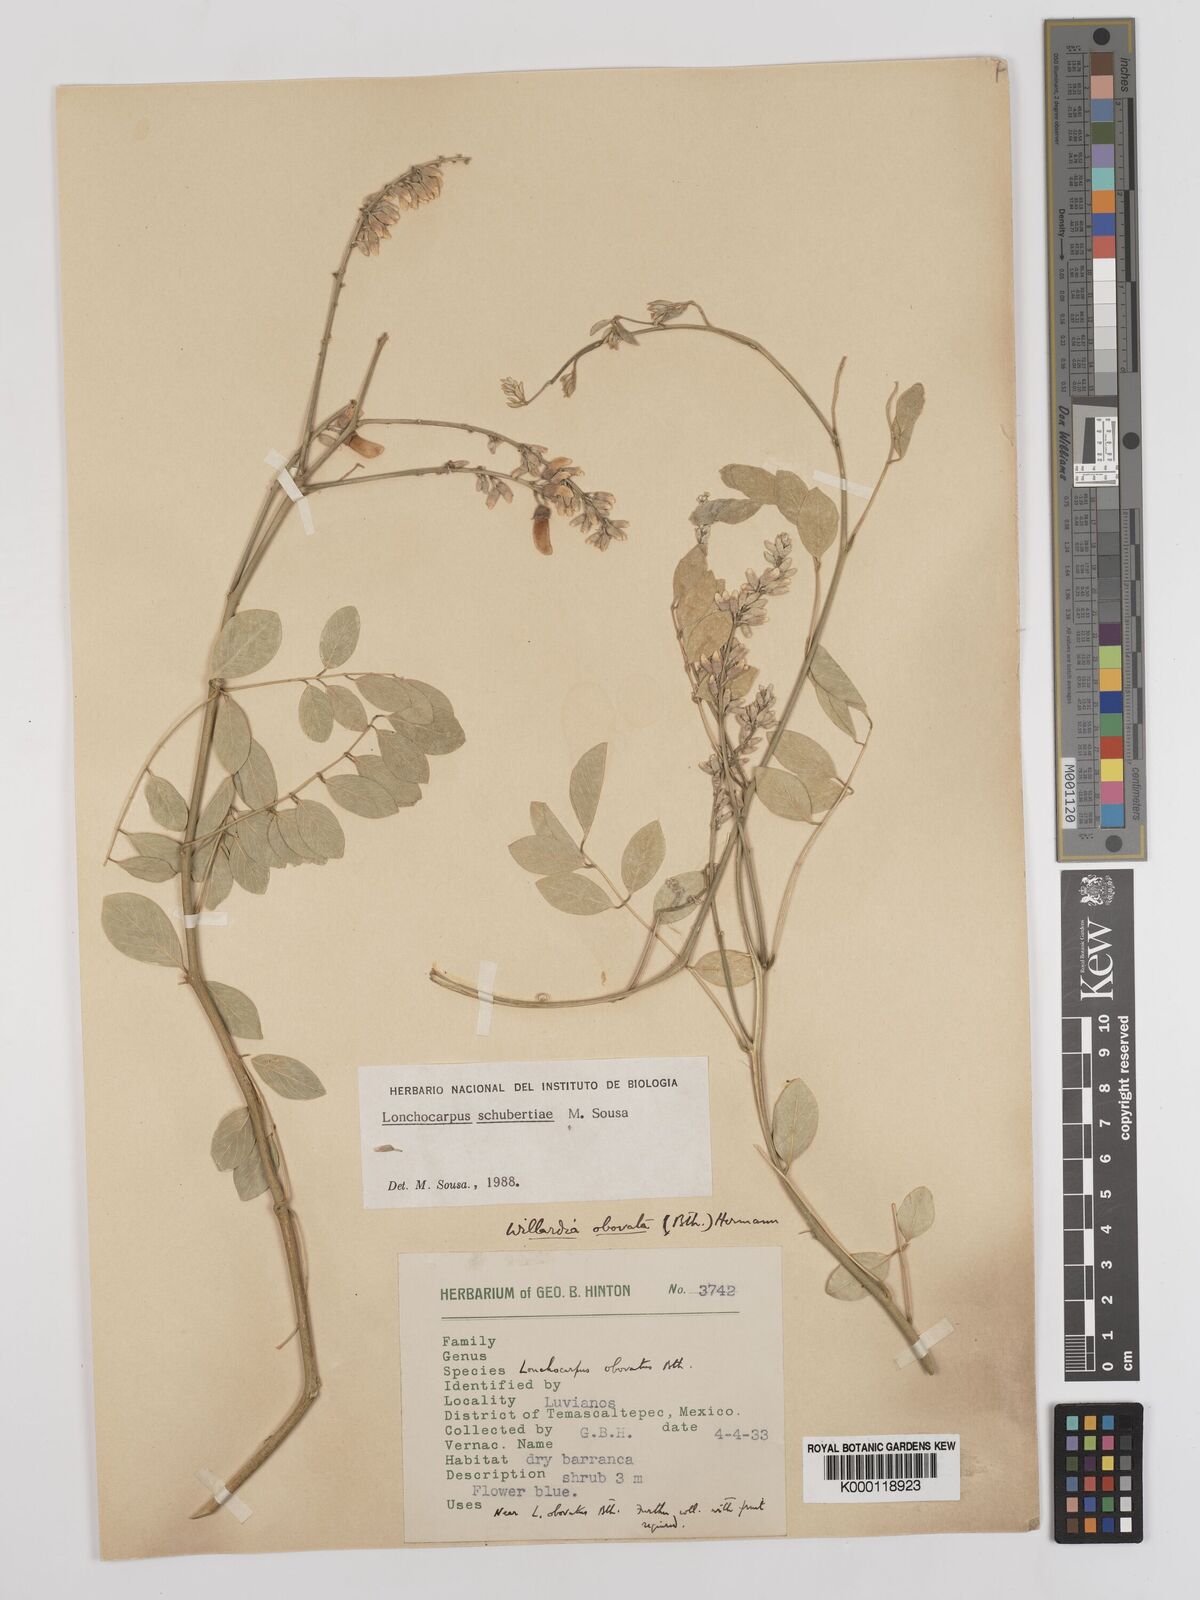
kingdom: Plantae
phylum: Tracheophyta
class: Magnoliopsida
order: Fabales
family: Fabaceae
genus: Lonchocarpus
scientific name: Lonchocarpus schubertiae
